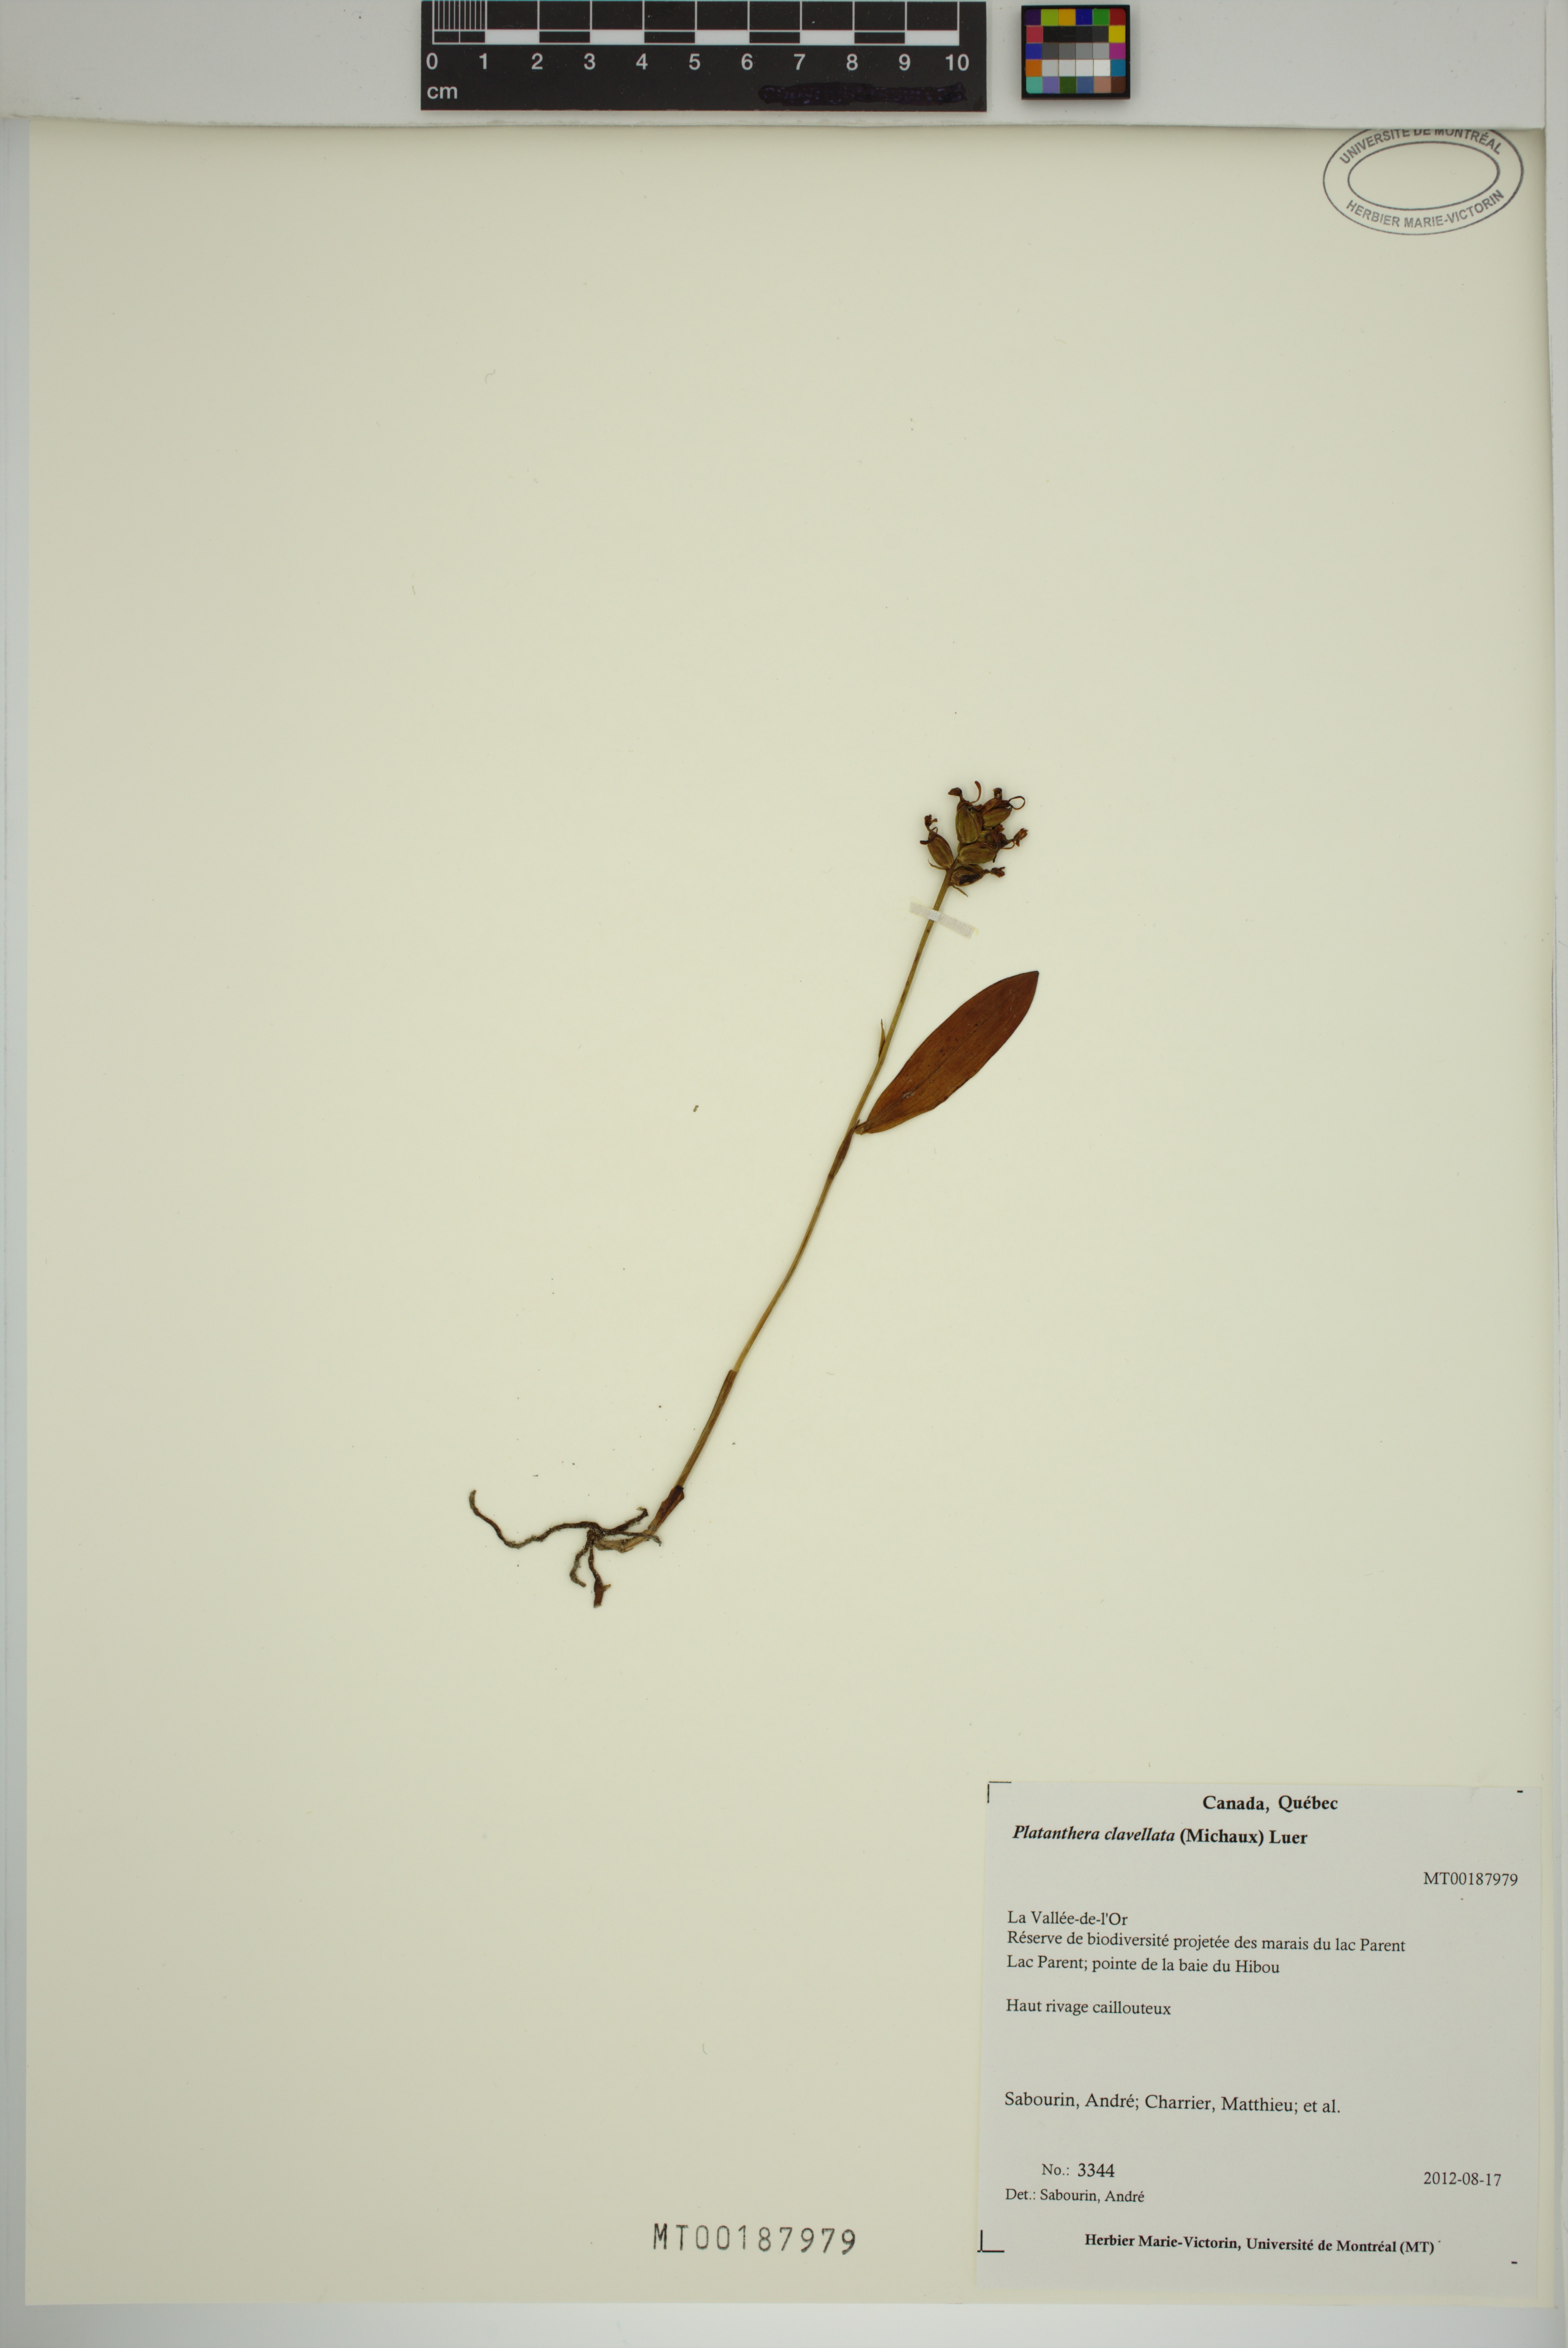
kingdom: Plantae
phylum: Tracheophyta
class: Liliopsida
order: Asparagales
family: Orchidaceae
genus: Platanthera
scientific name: Platanthera clavellata
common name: Club-spur orchid
